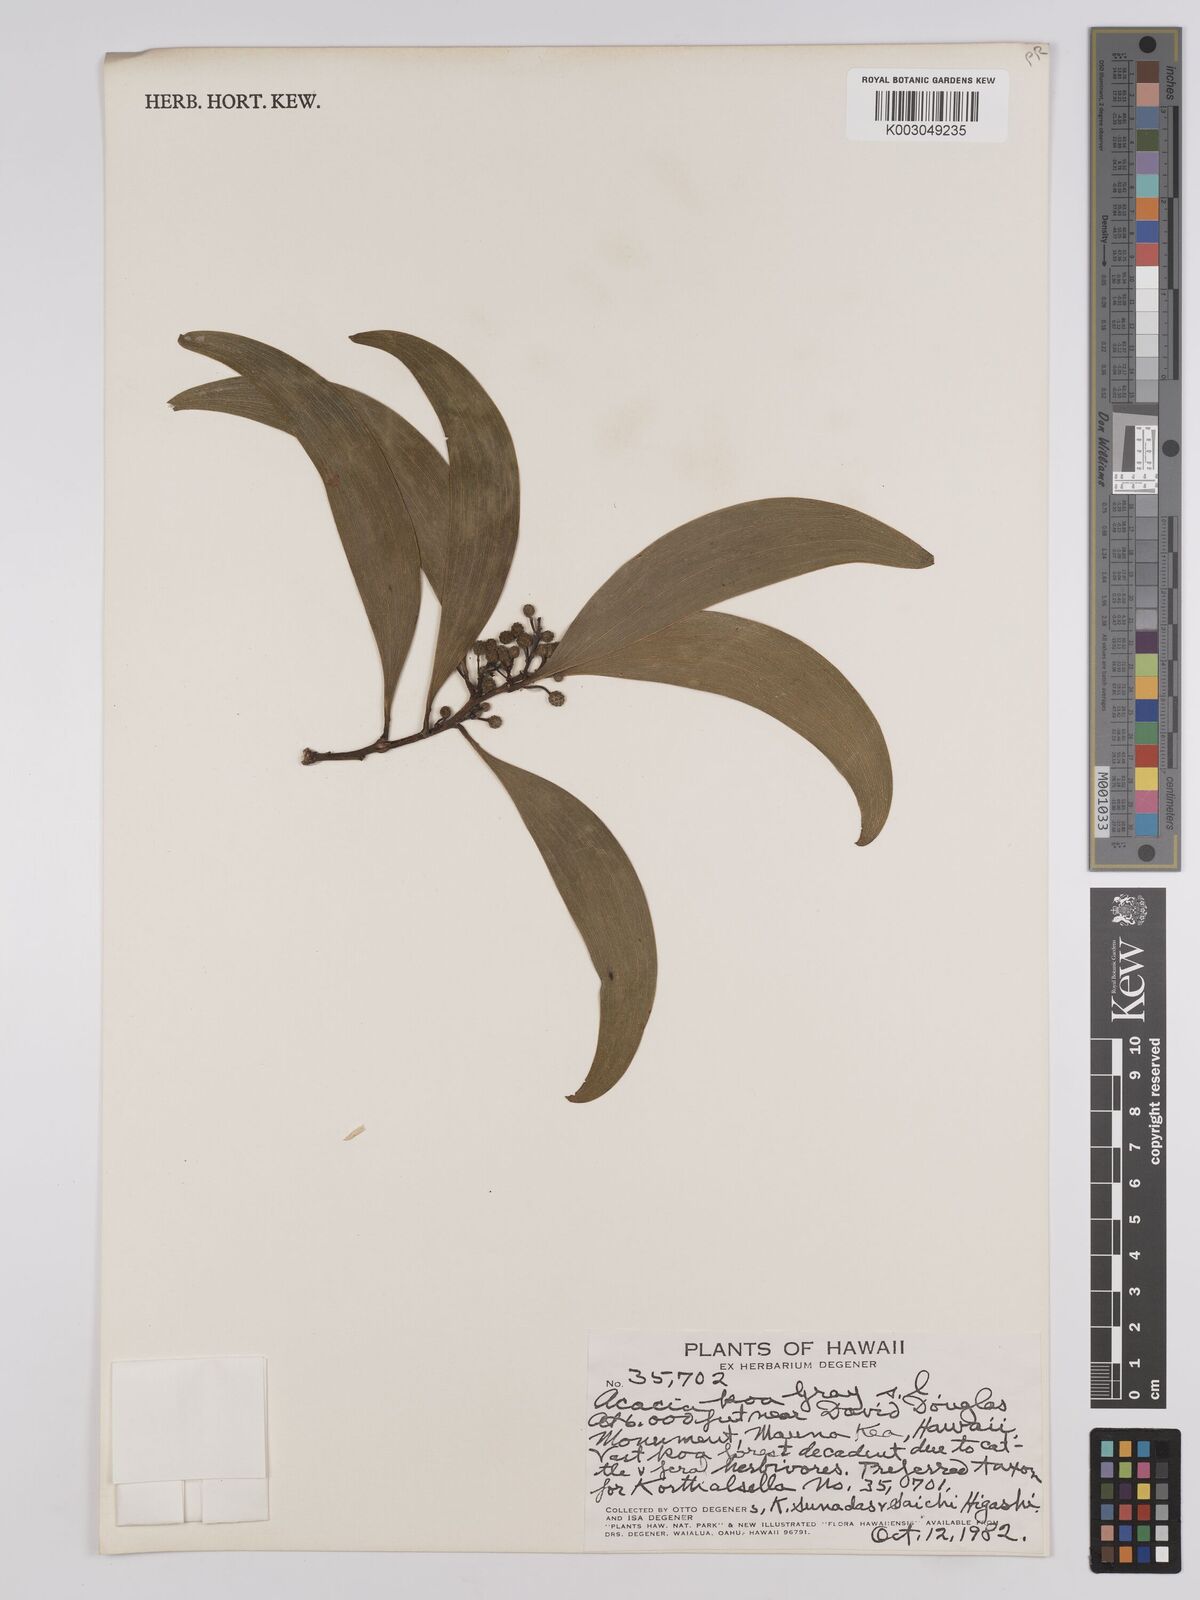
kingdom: Plantae
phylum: Tracheophyta
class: Magnoliopsida
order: Fabales
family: Fabaceae
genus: Acacia
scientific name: Acacia koa
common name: Gray koa
